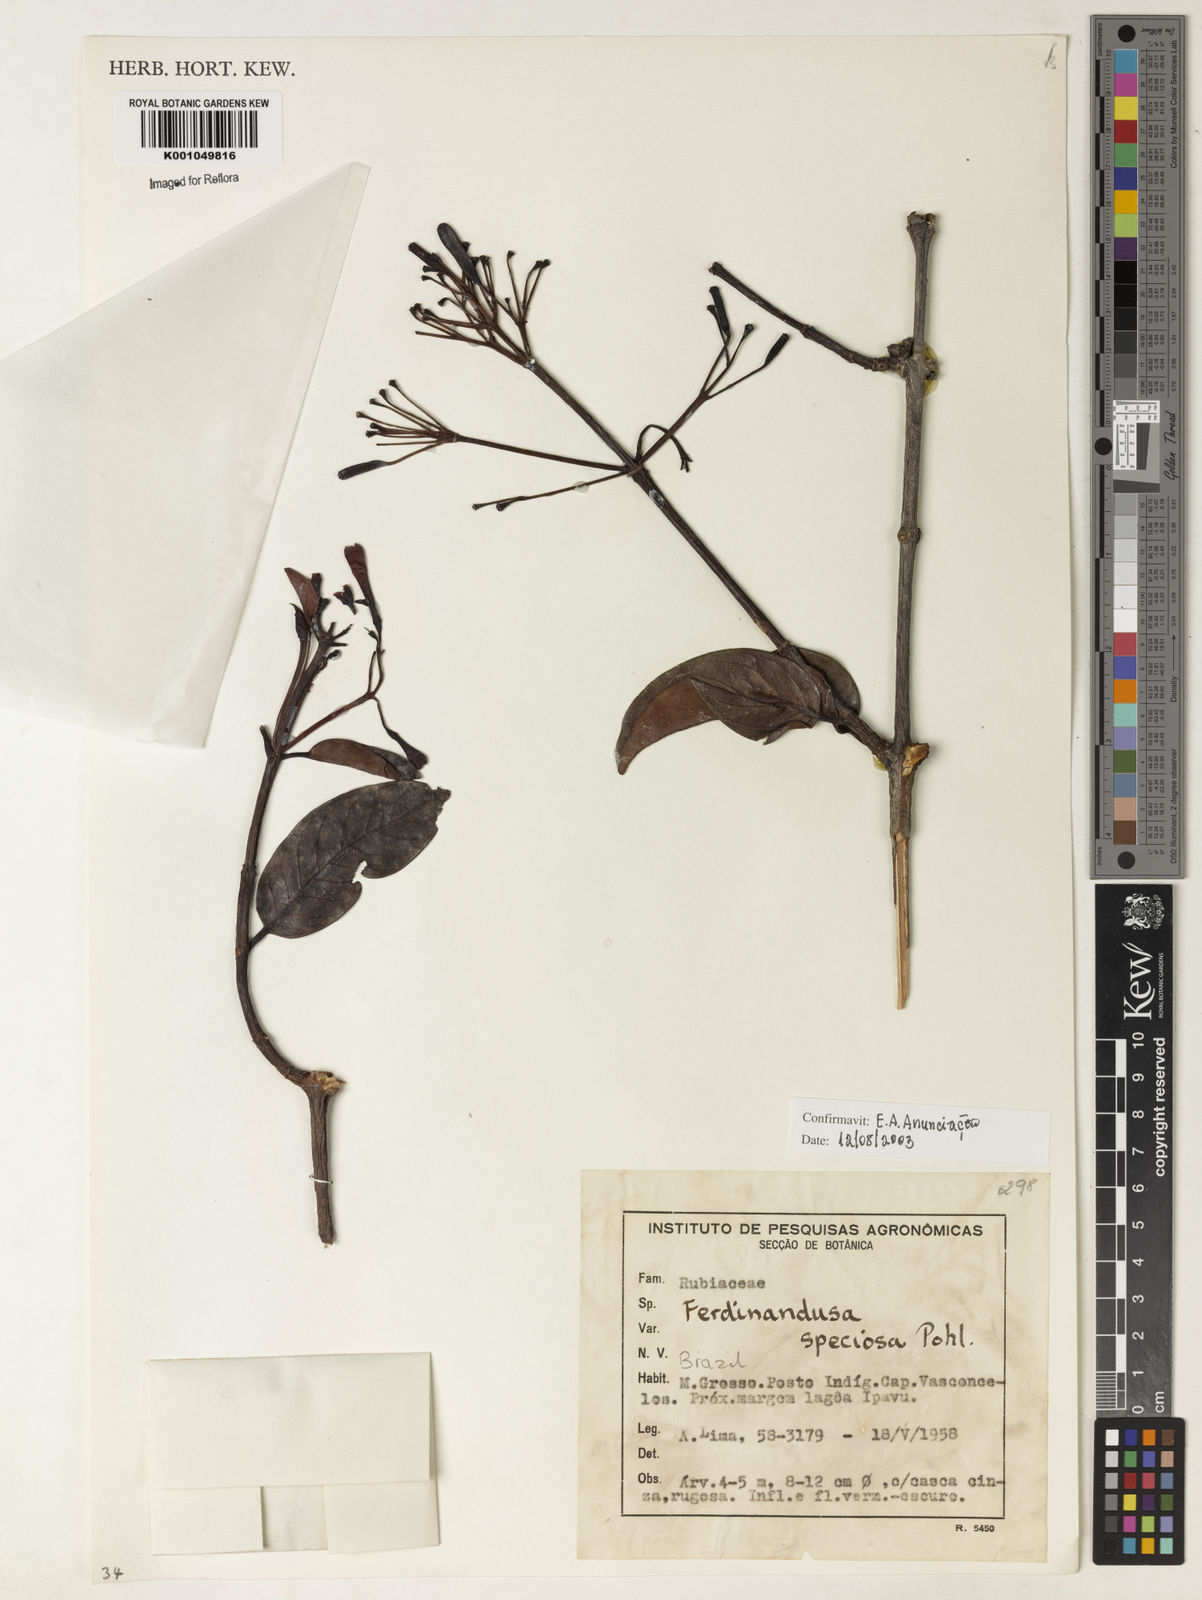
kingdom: Plantae
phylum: Tracheophyta
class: Magnoliopsida
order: Gentianales
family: Rubiaceae
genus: Ferdinandusa
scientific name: Ferdinandusa speciosa
